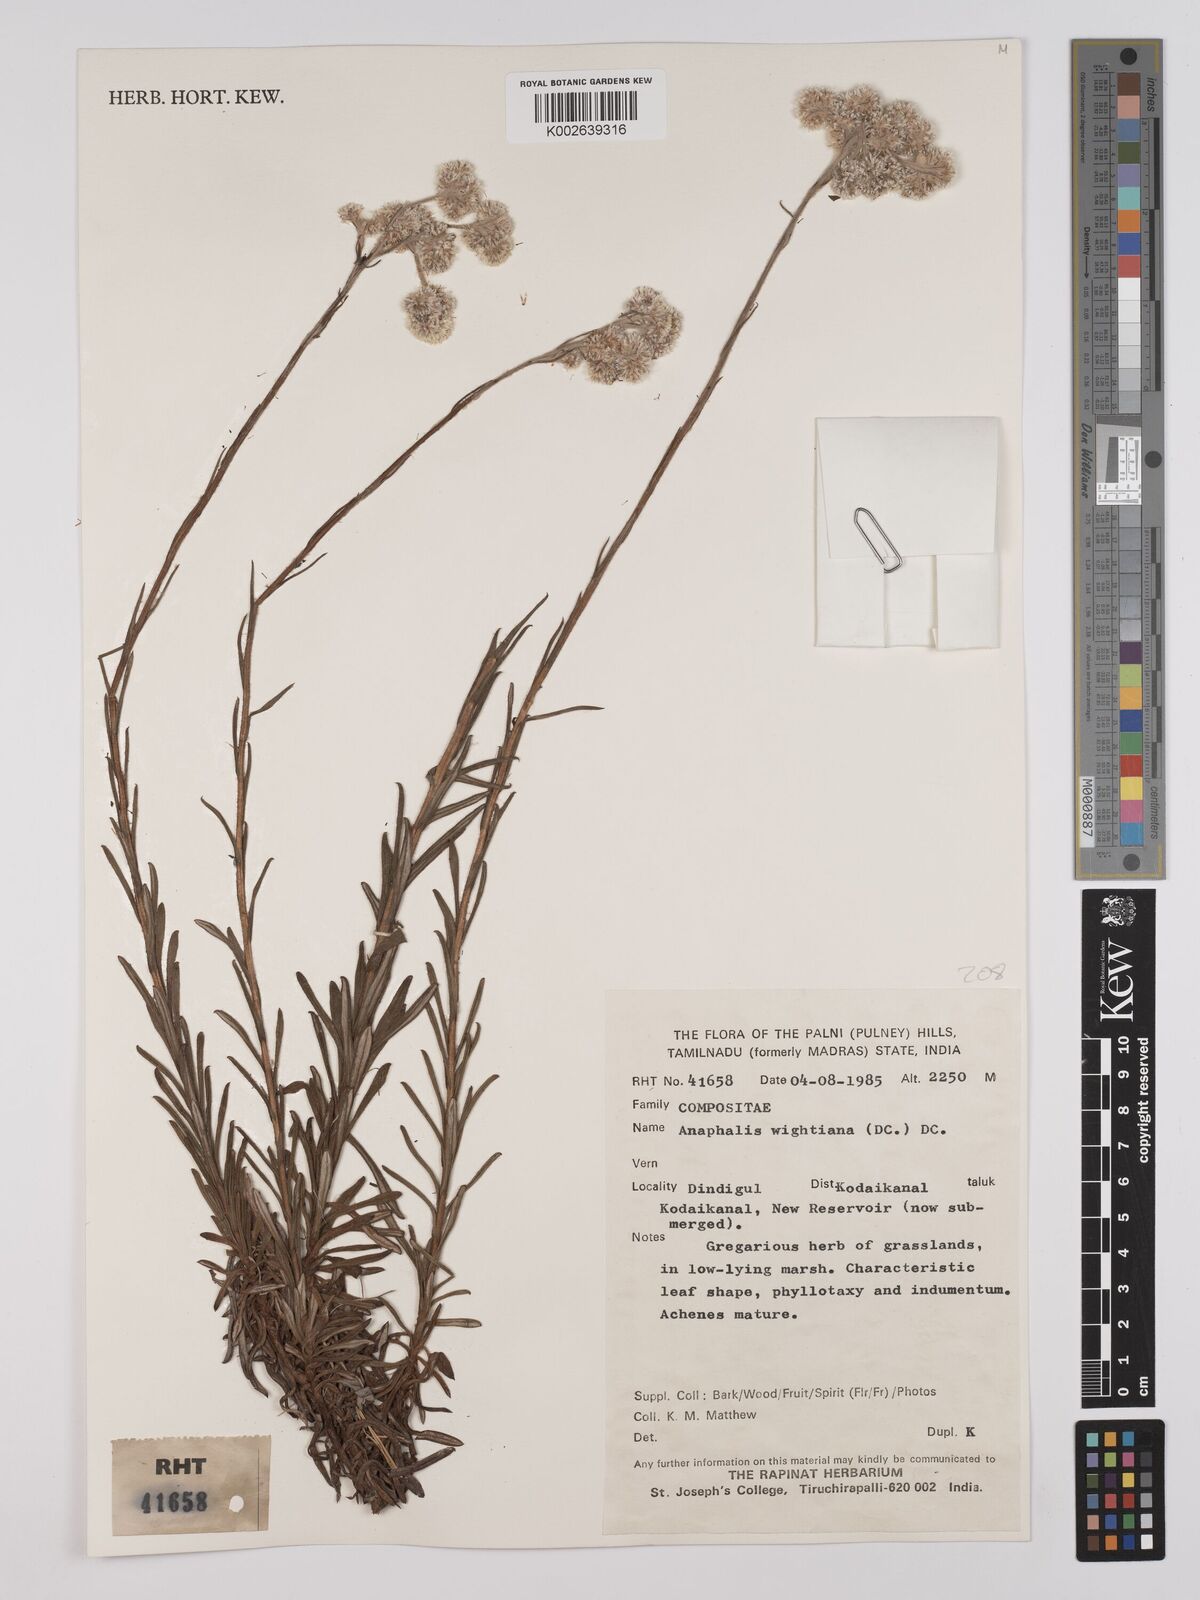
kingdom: Plantae
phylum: Tracheophyta
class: Magnoliopsida
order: Asterales
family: Asteraceae
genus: Anaphalis
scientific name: Anaphalis wightiana
